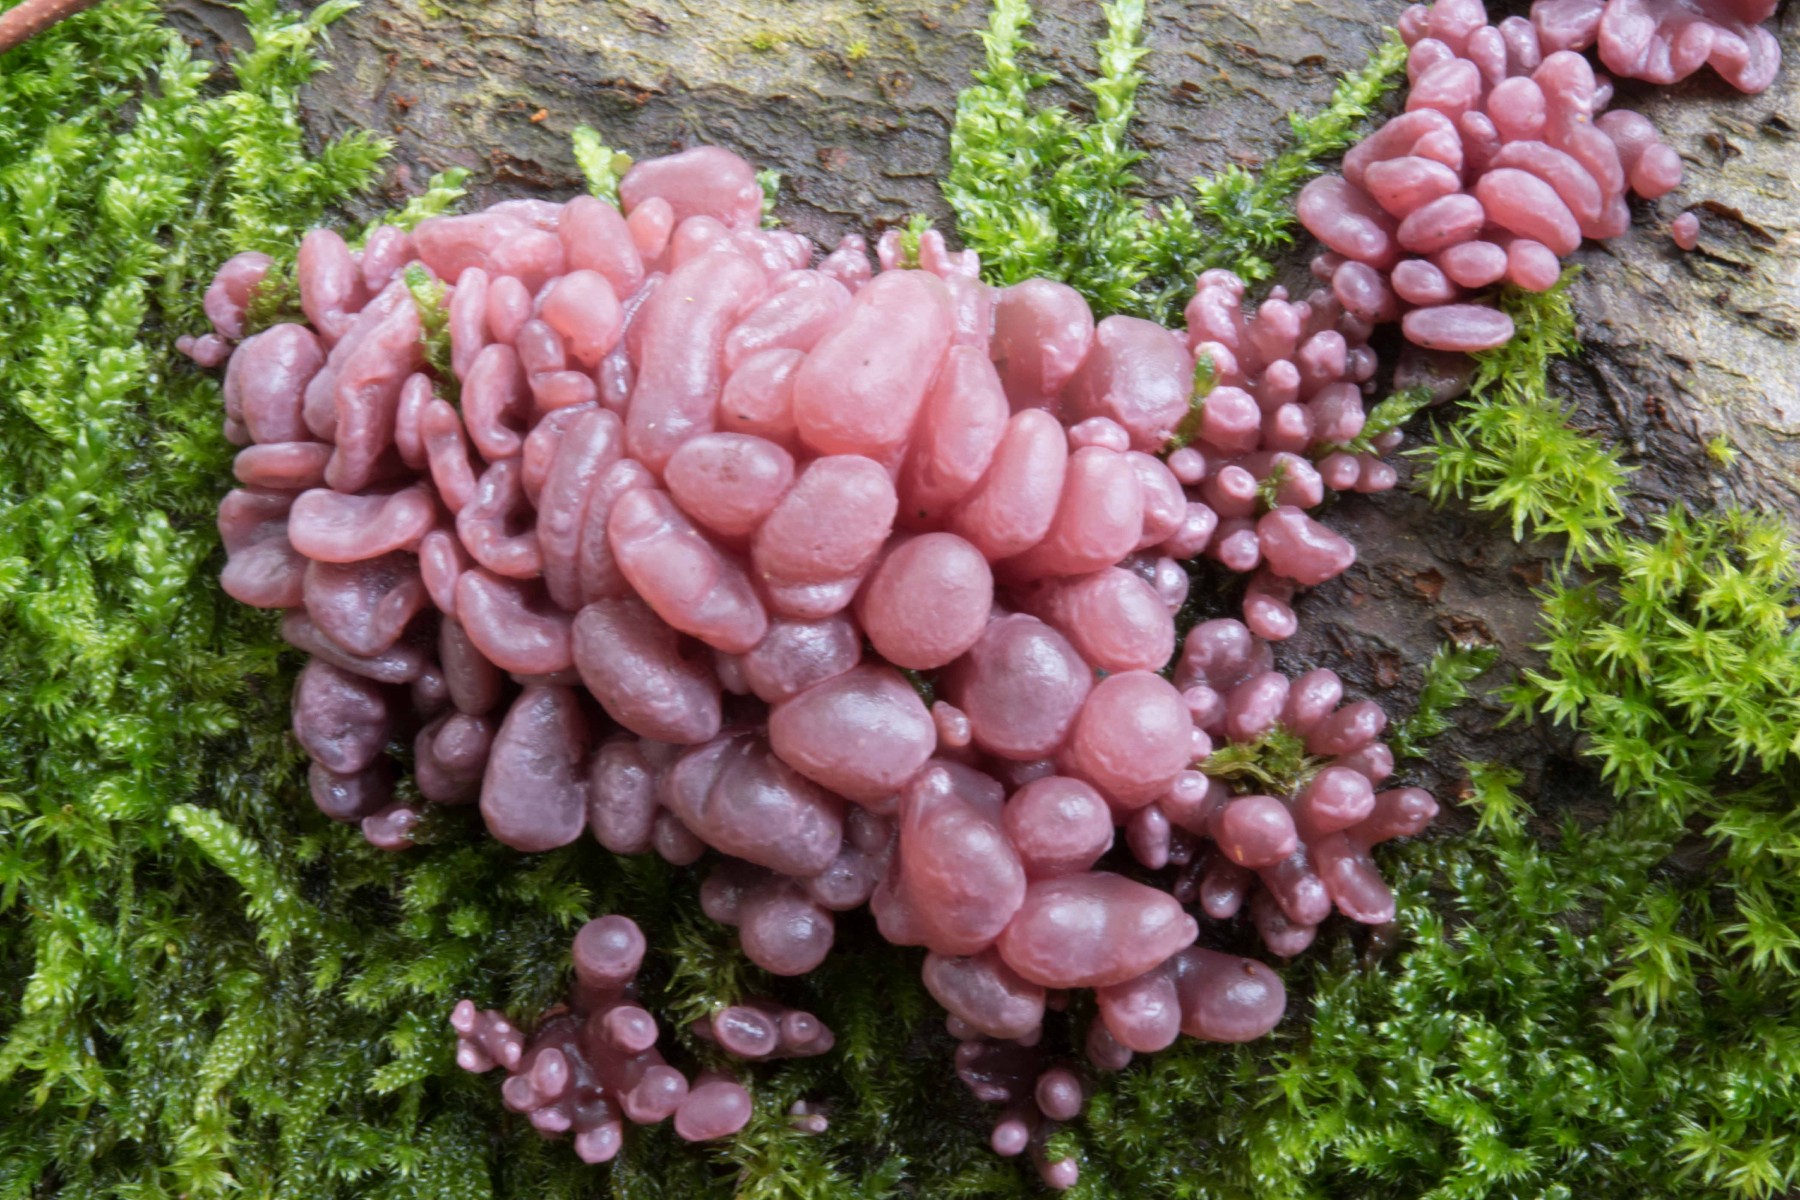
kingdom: Fungi
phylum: Ascomycota
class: Leotiomycetes
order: Helotiales
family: Gelatinodiscaceae
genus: Ascocoryne
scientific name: Ascocoryne sarcoides
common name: rødlilla sejskive
